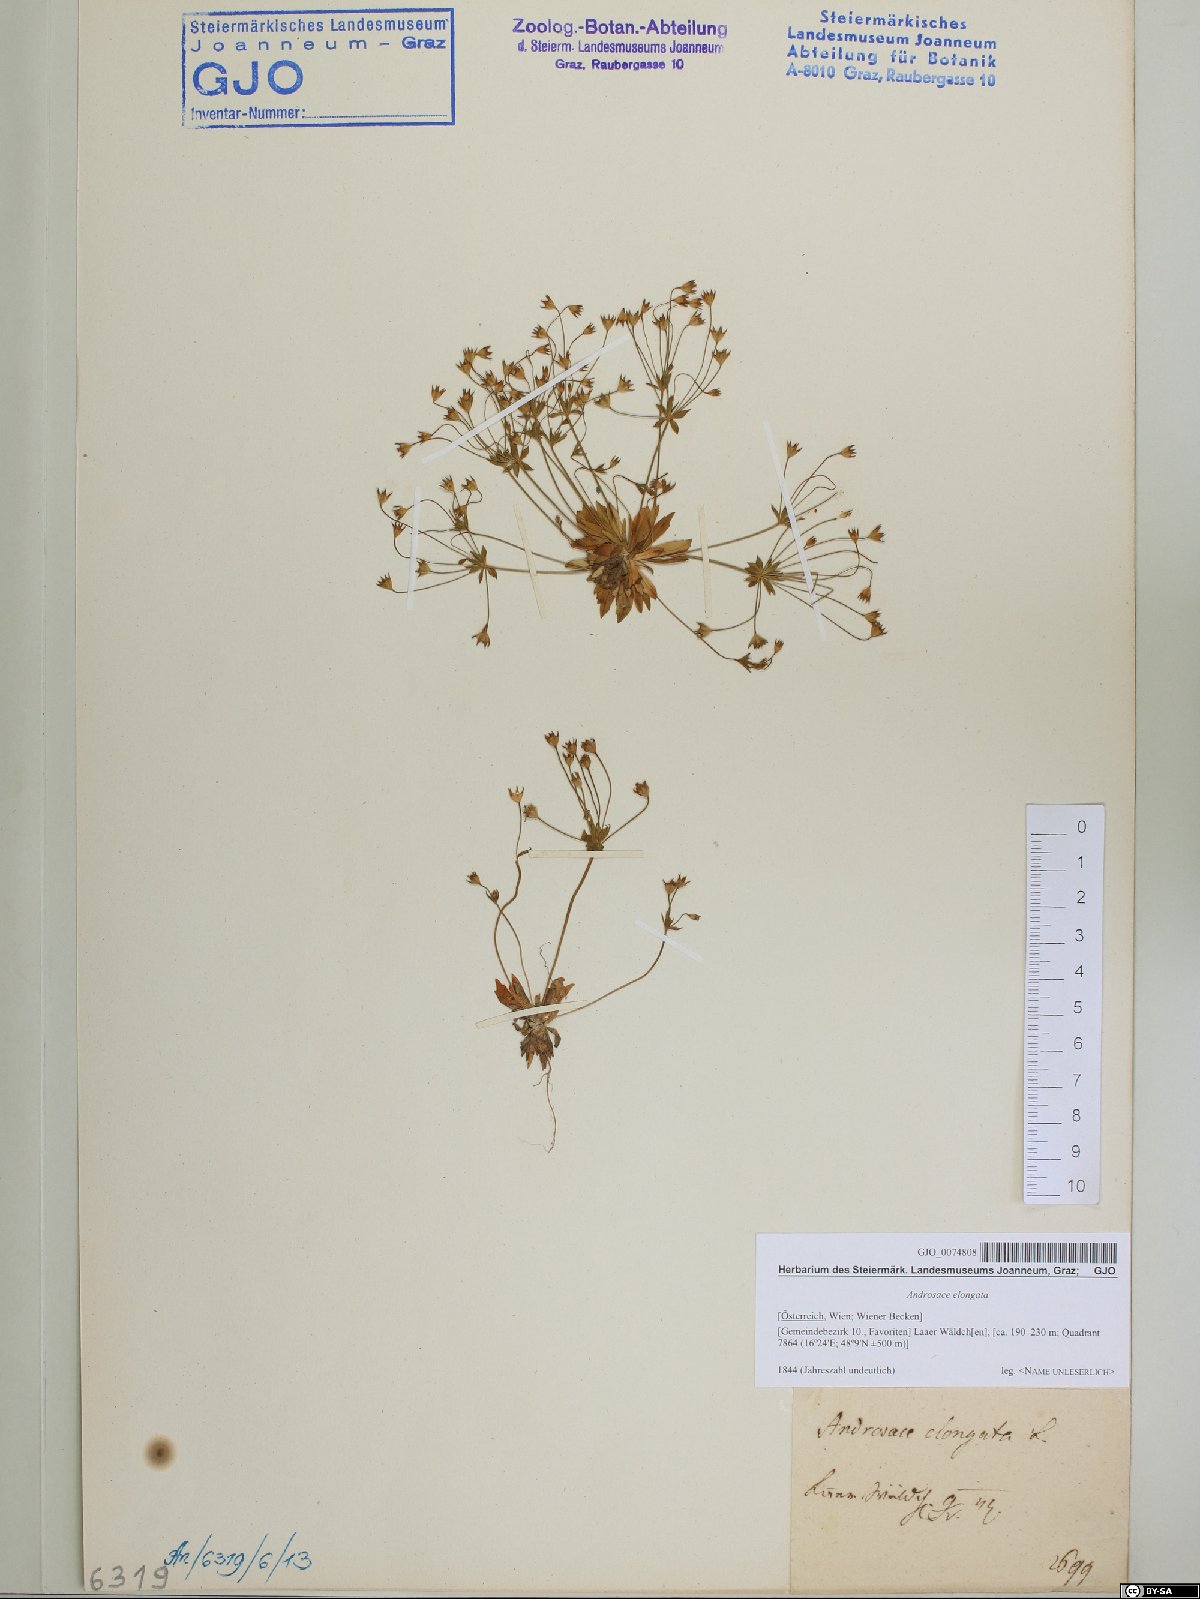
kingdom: Plantae
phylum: Tracheophyta
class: Magnoliopsida
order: Ericales
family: Primulaceae
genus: Androsace
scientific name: Androsace elongata
